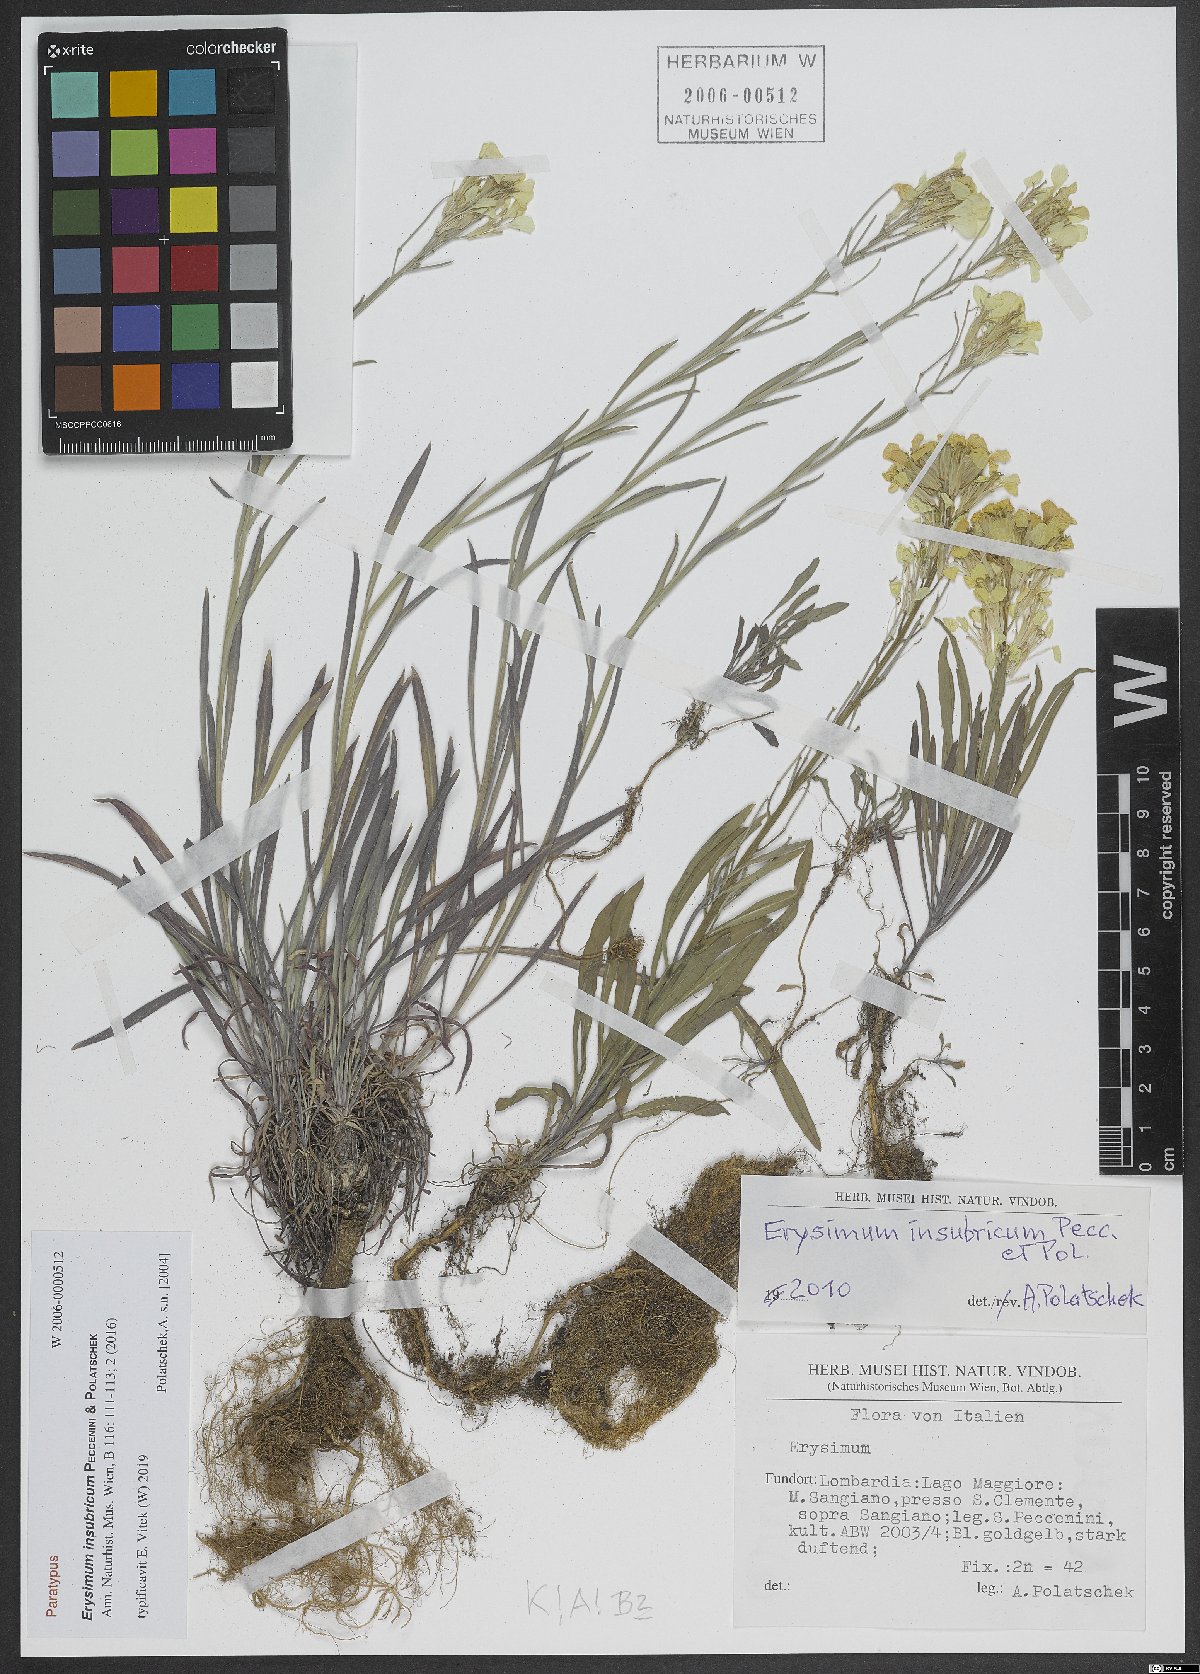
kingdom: Plantae
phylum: Tracheophyta
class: Magnoliopsida
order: Brassicales
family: Brassicaceae
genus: Erysimum
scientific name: Erysimum insubricum
